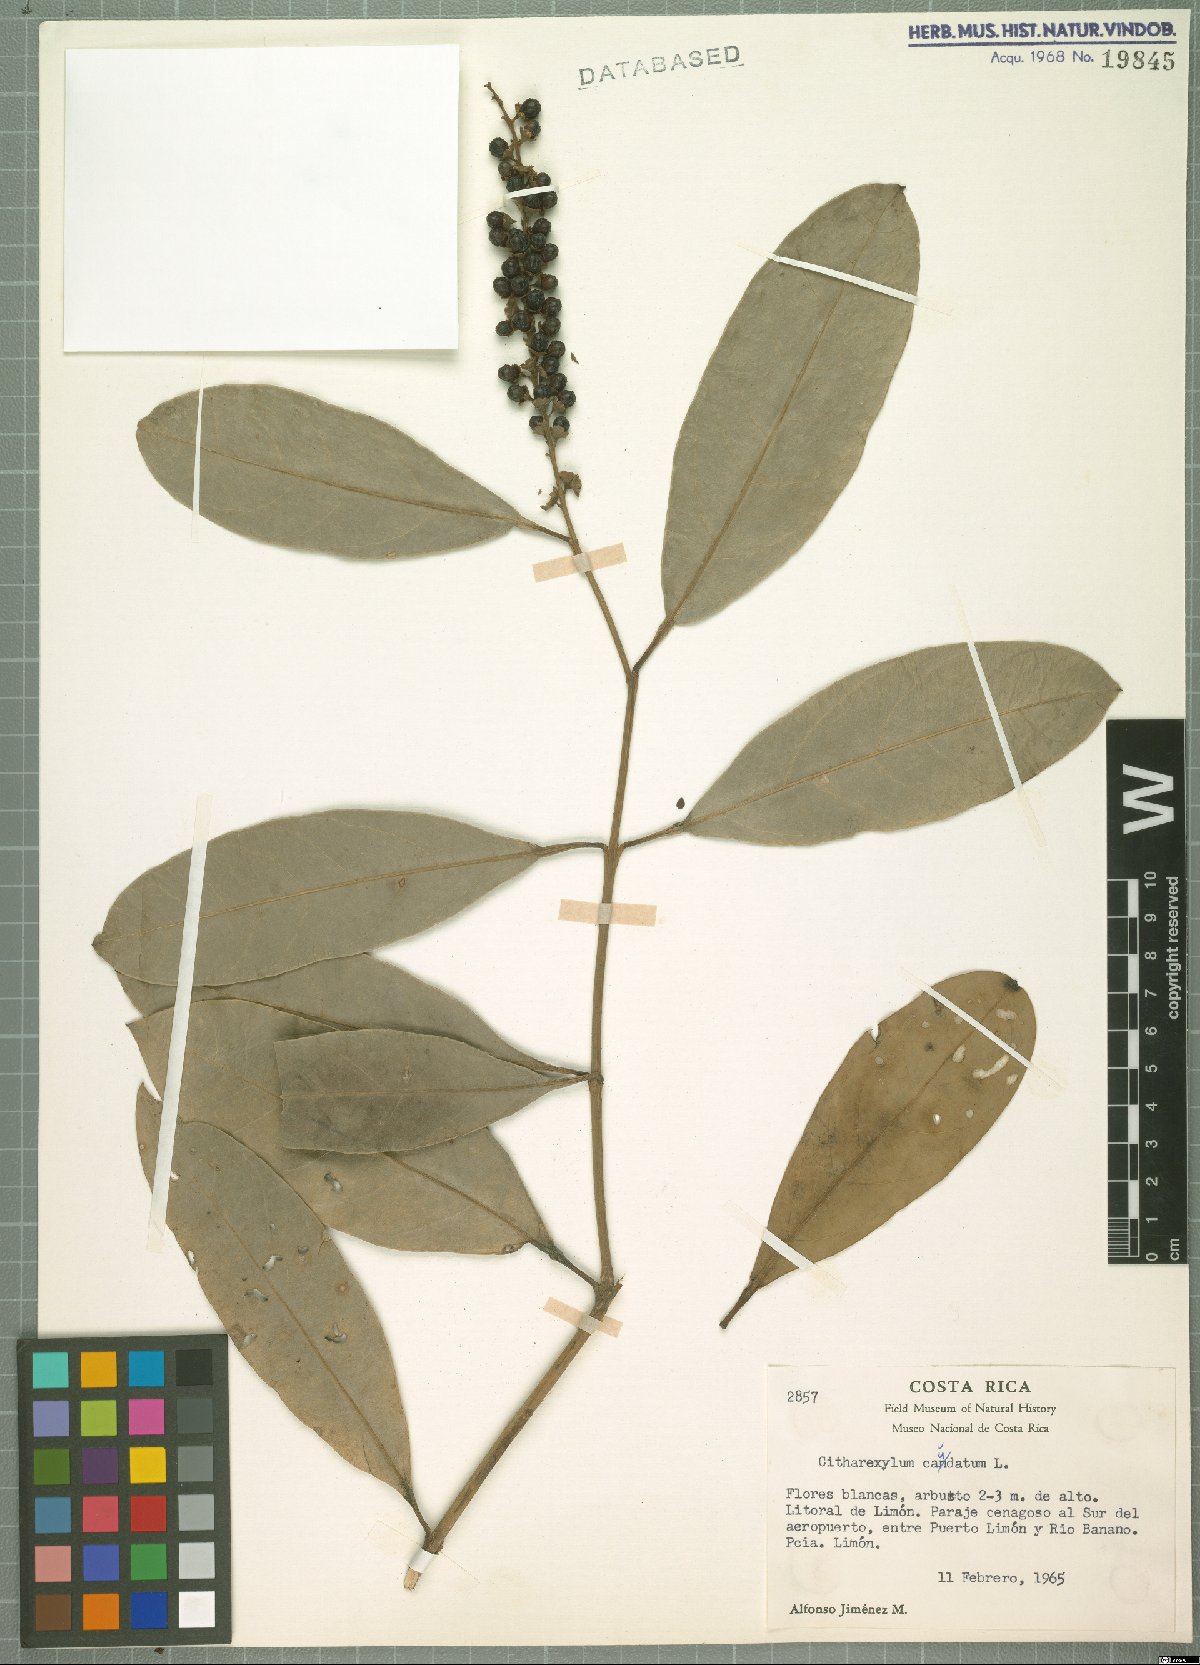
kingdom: Plantae
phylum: Tracheophyta
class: Magnoliopsida
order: Lamiales
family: Verbenaceae
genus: Citharexylum
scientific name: Citharexylum caudatum
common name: Fiddlewood
